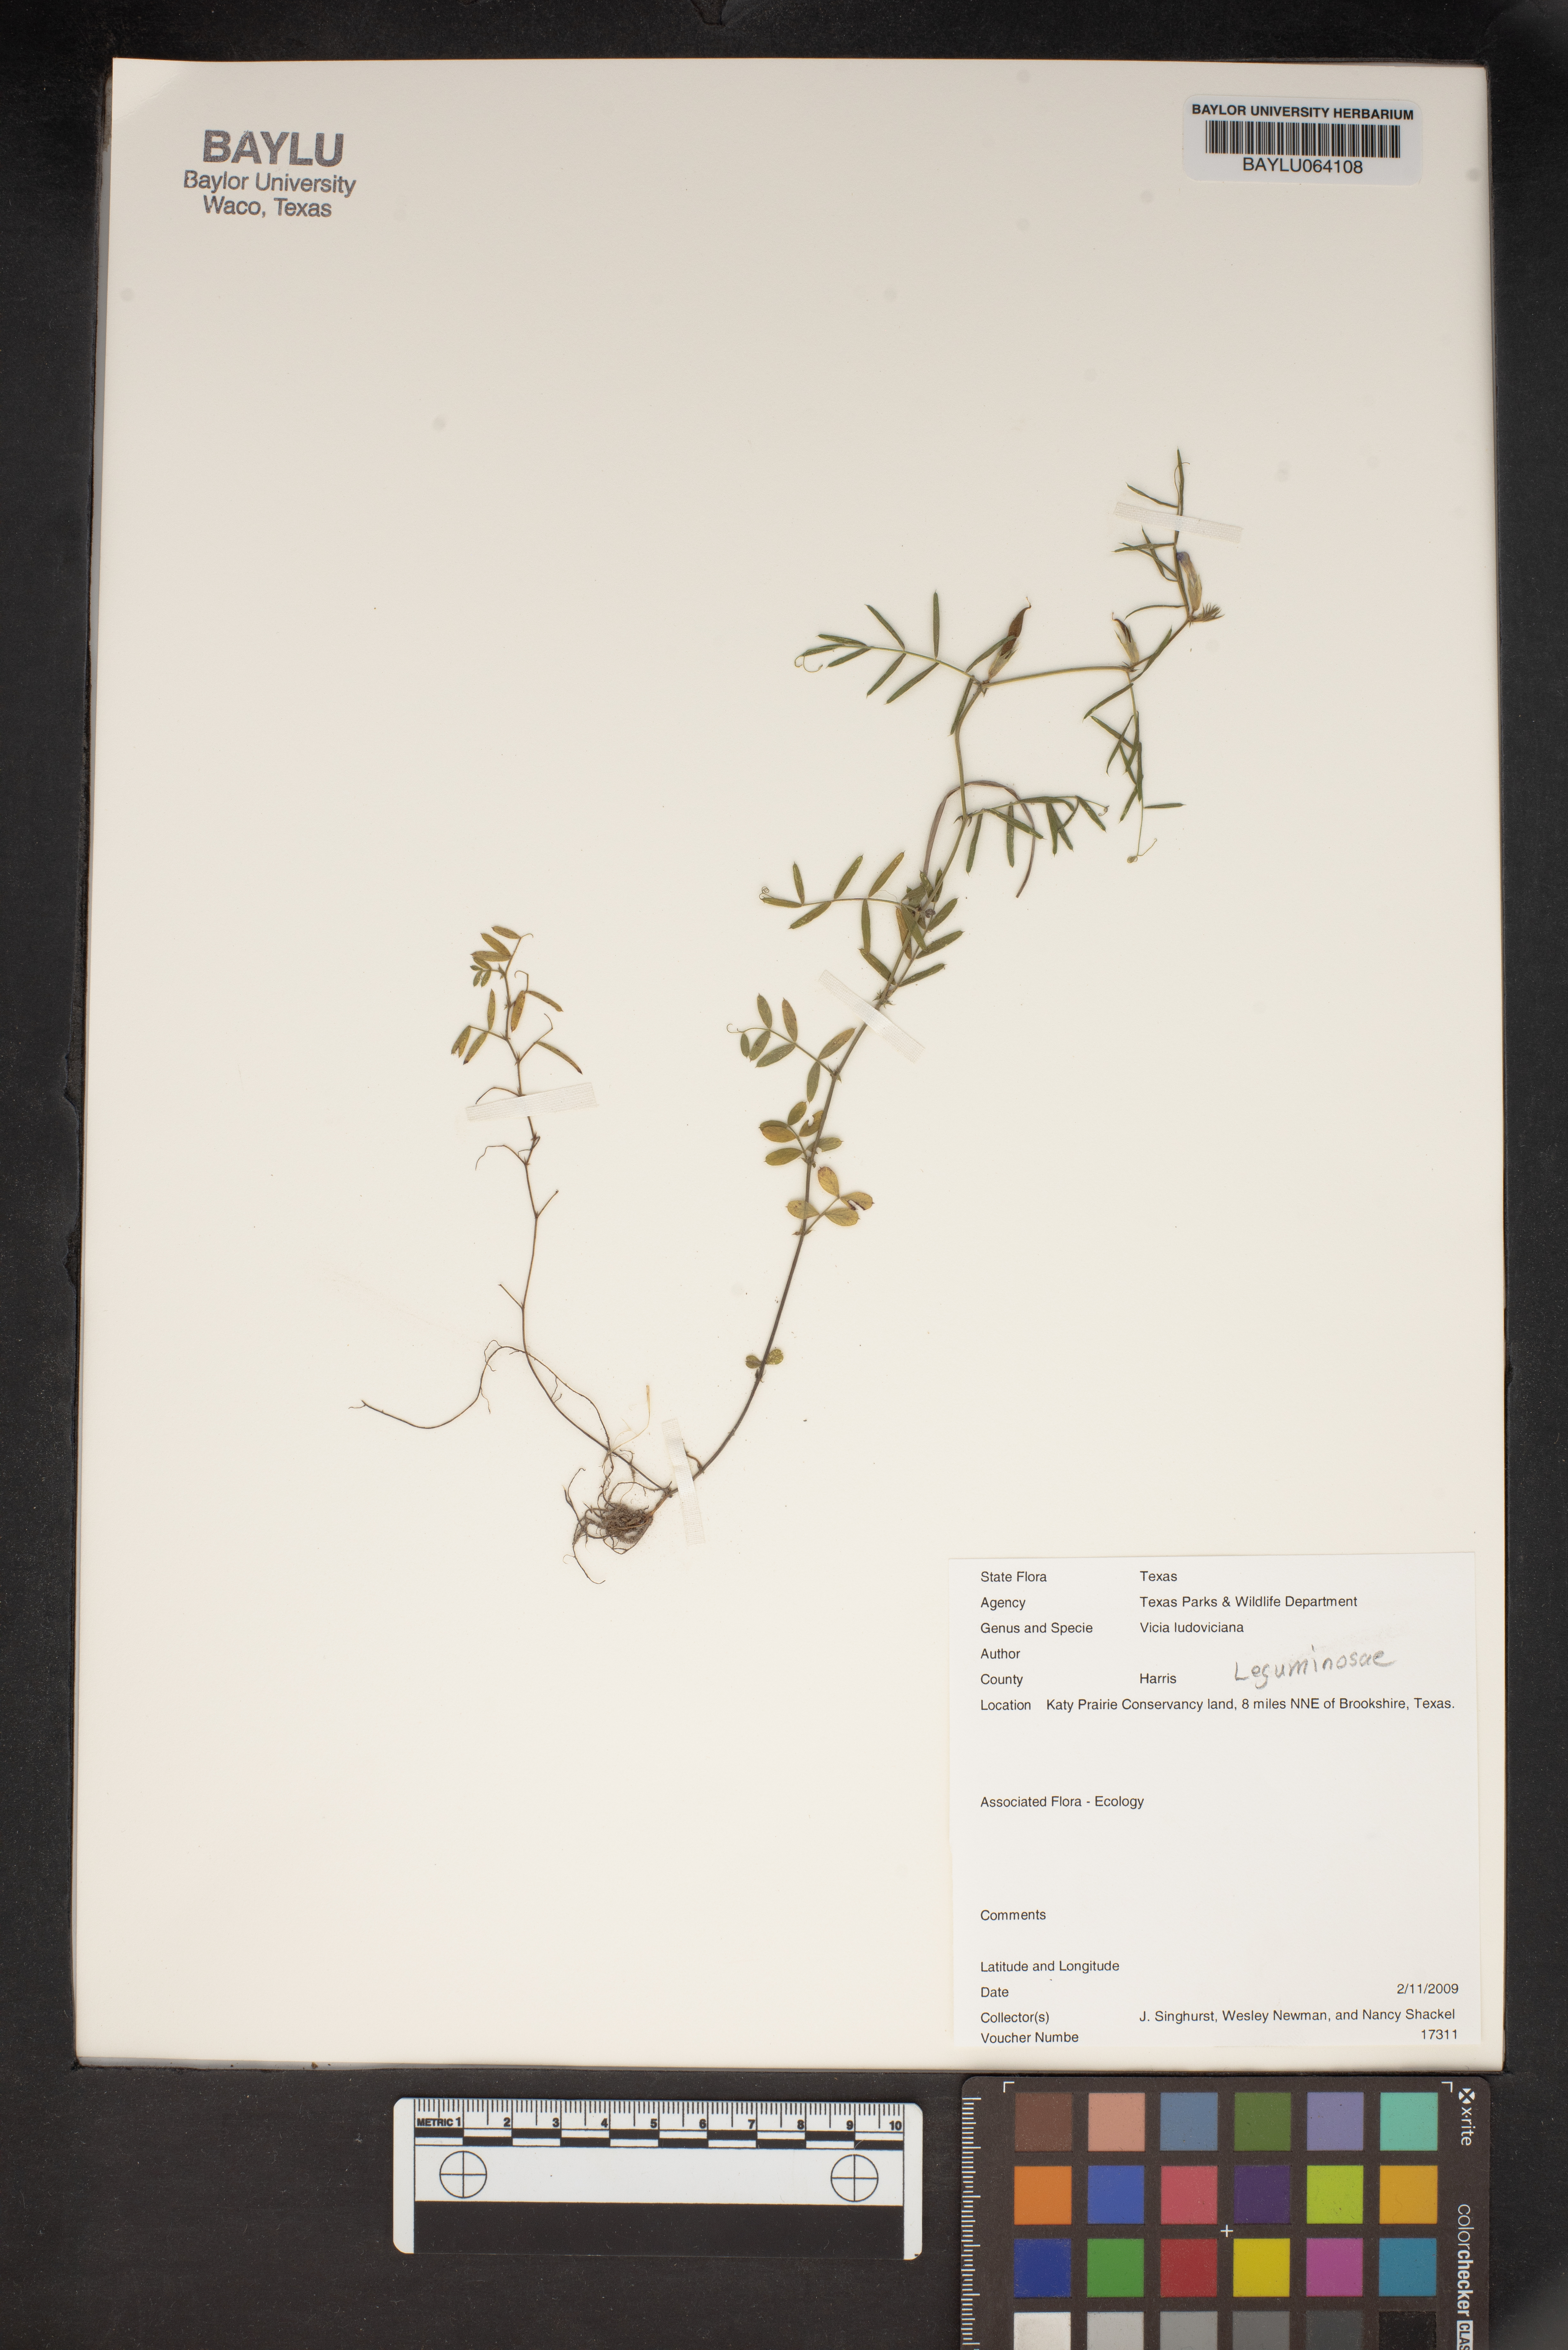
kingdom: Plantae
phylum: Tracheophyta
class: Magnoliopsida
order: Fabales
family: Fabaceae
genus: Vicia
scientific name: Vicia ludoviciana
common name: Louisiana vetch
